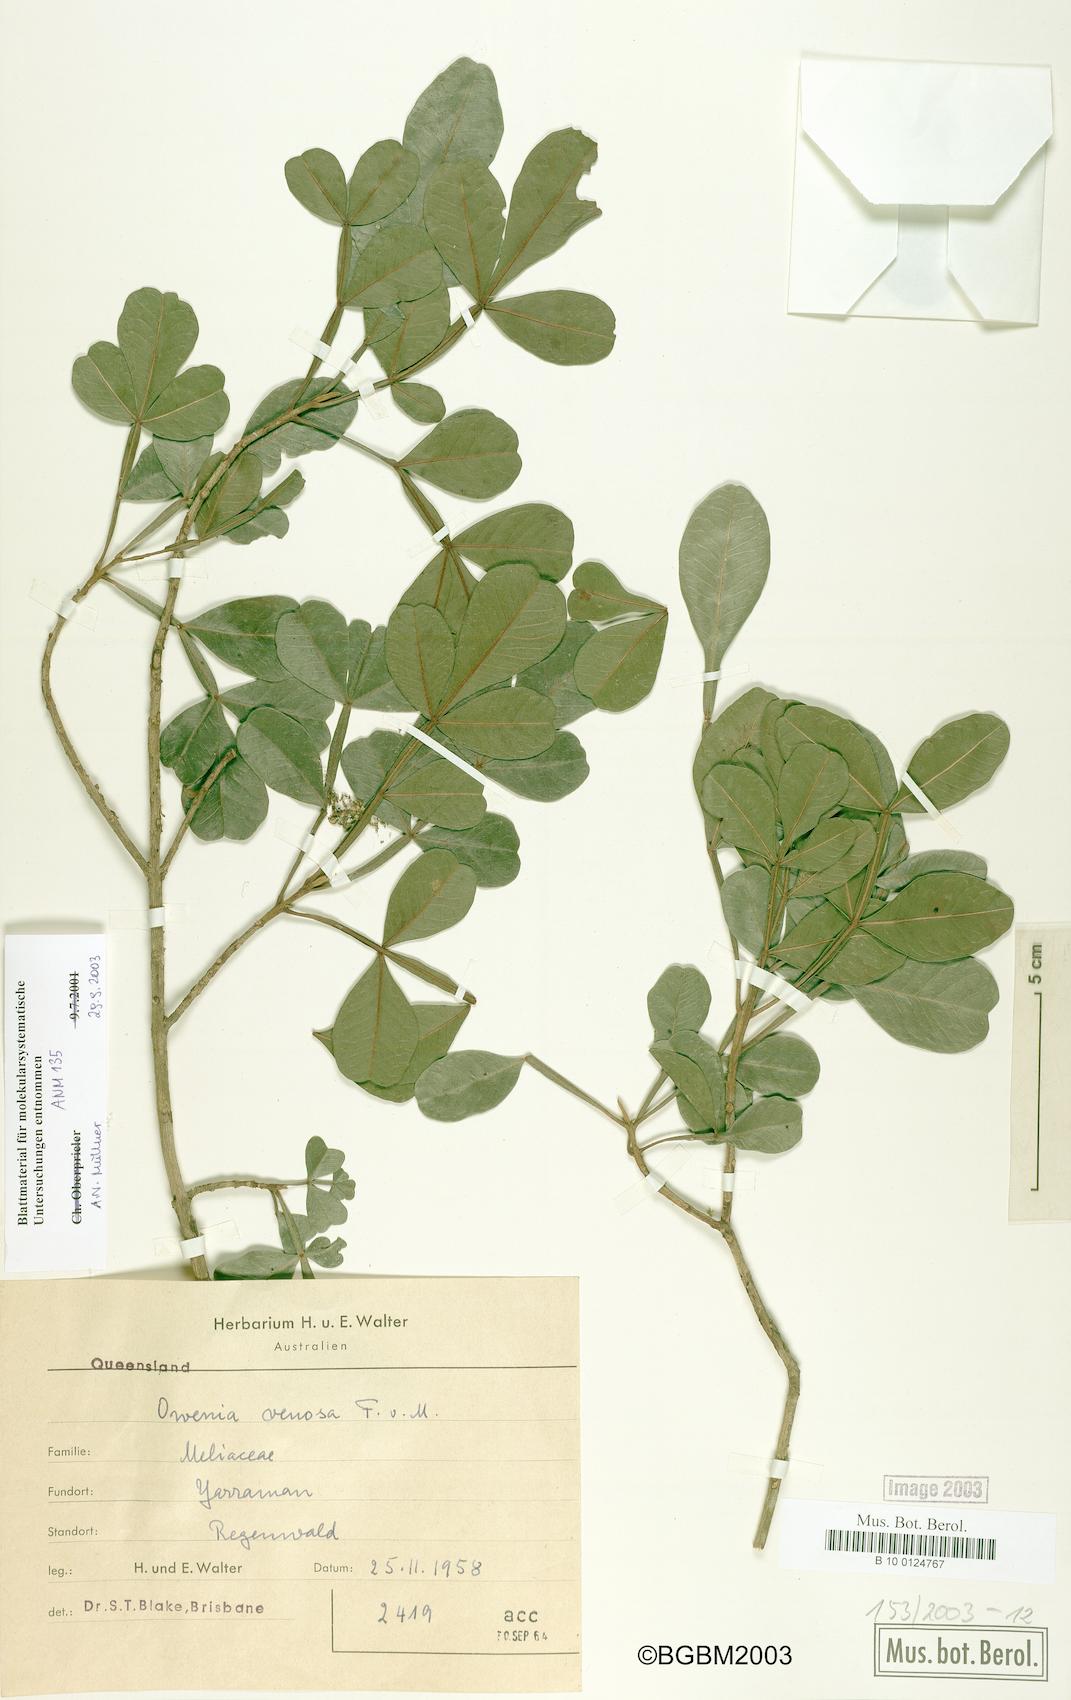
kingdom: Plantae
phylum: Tracheophyta
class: Magnoliopsida
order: Sapindales
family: Meliaceae
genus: Owenia
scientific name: Owenia venosa
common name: Crow's-apple
